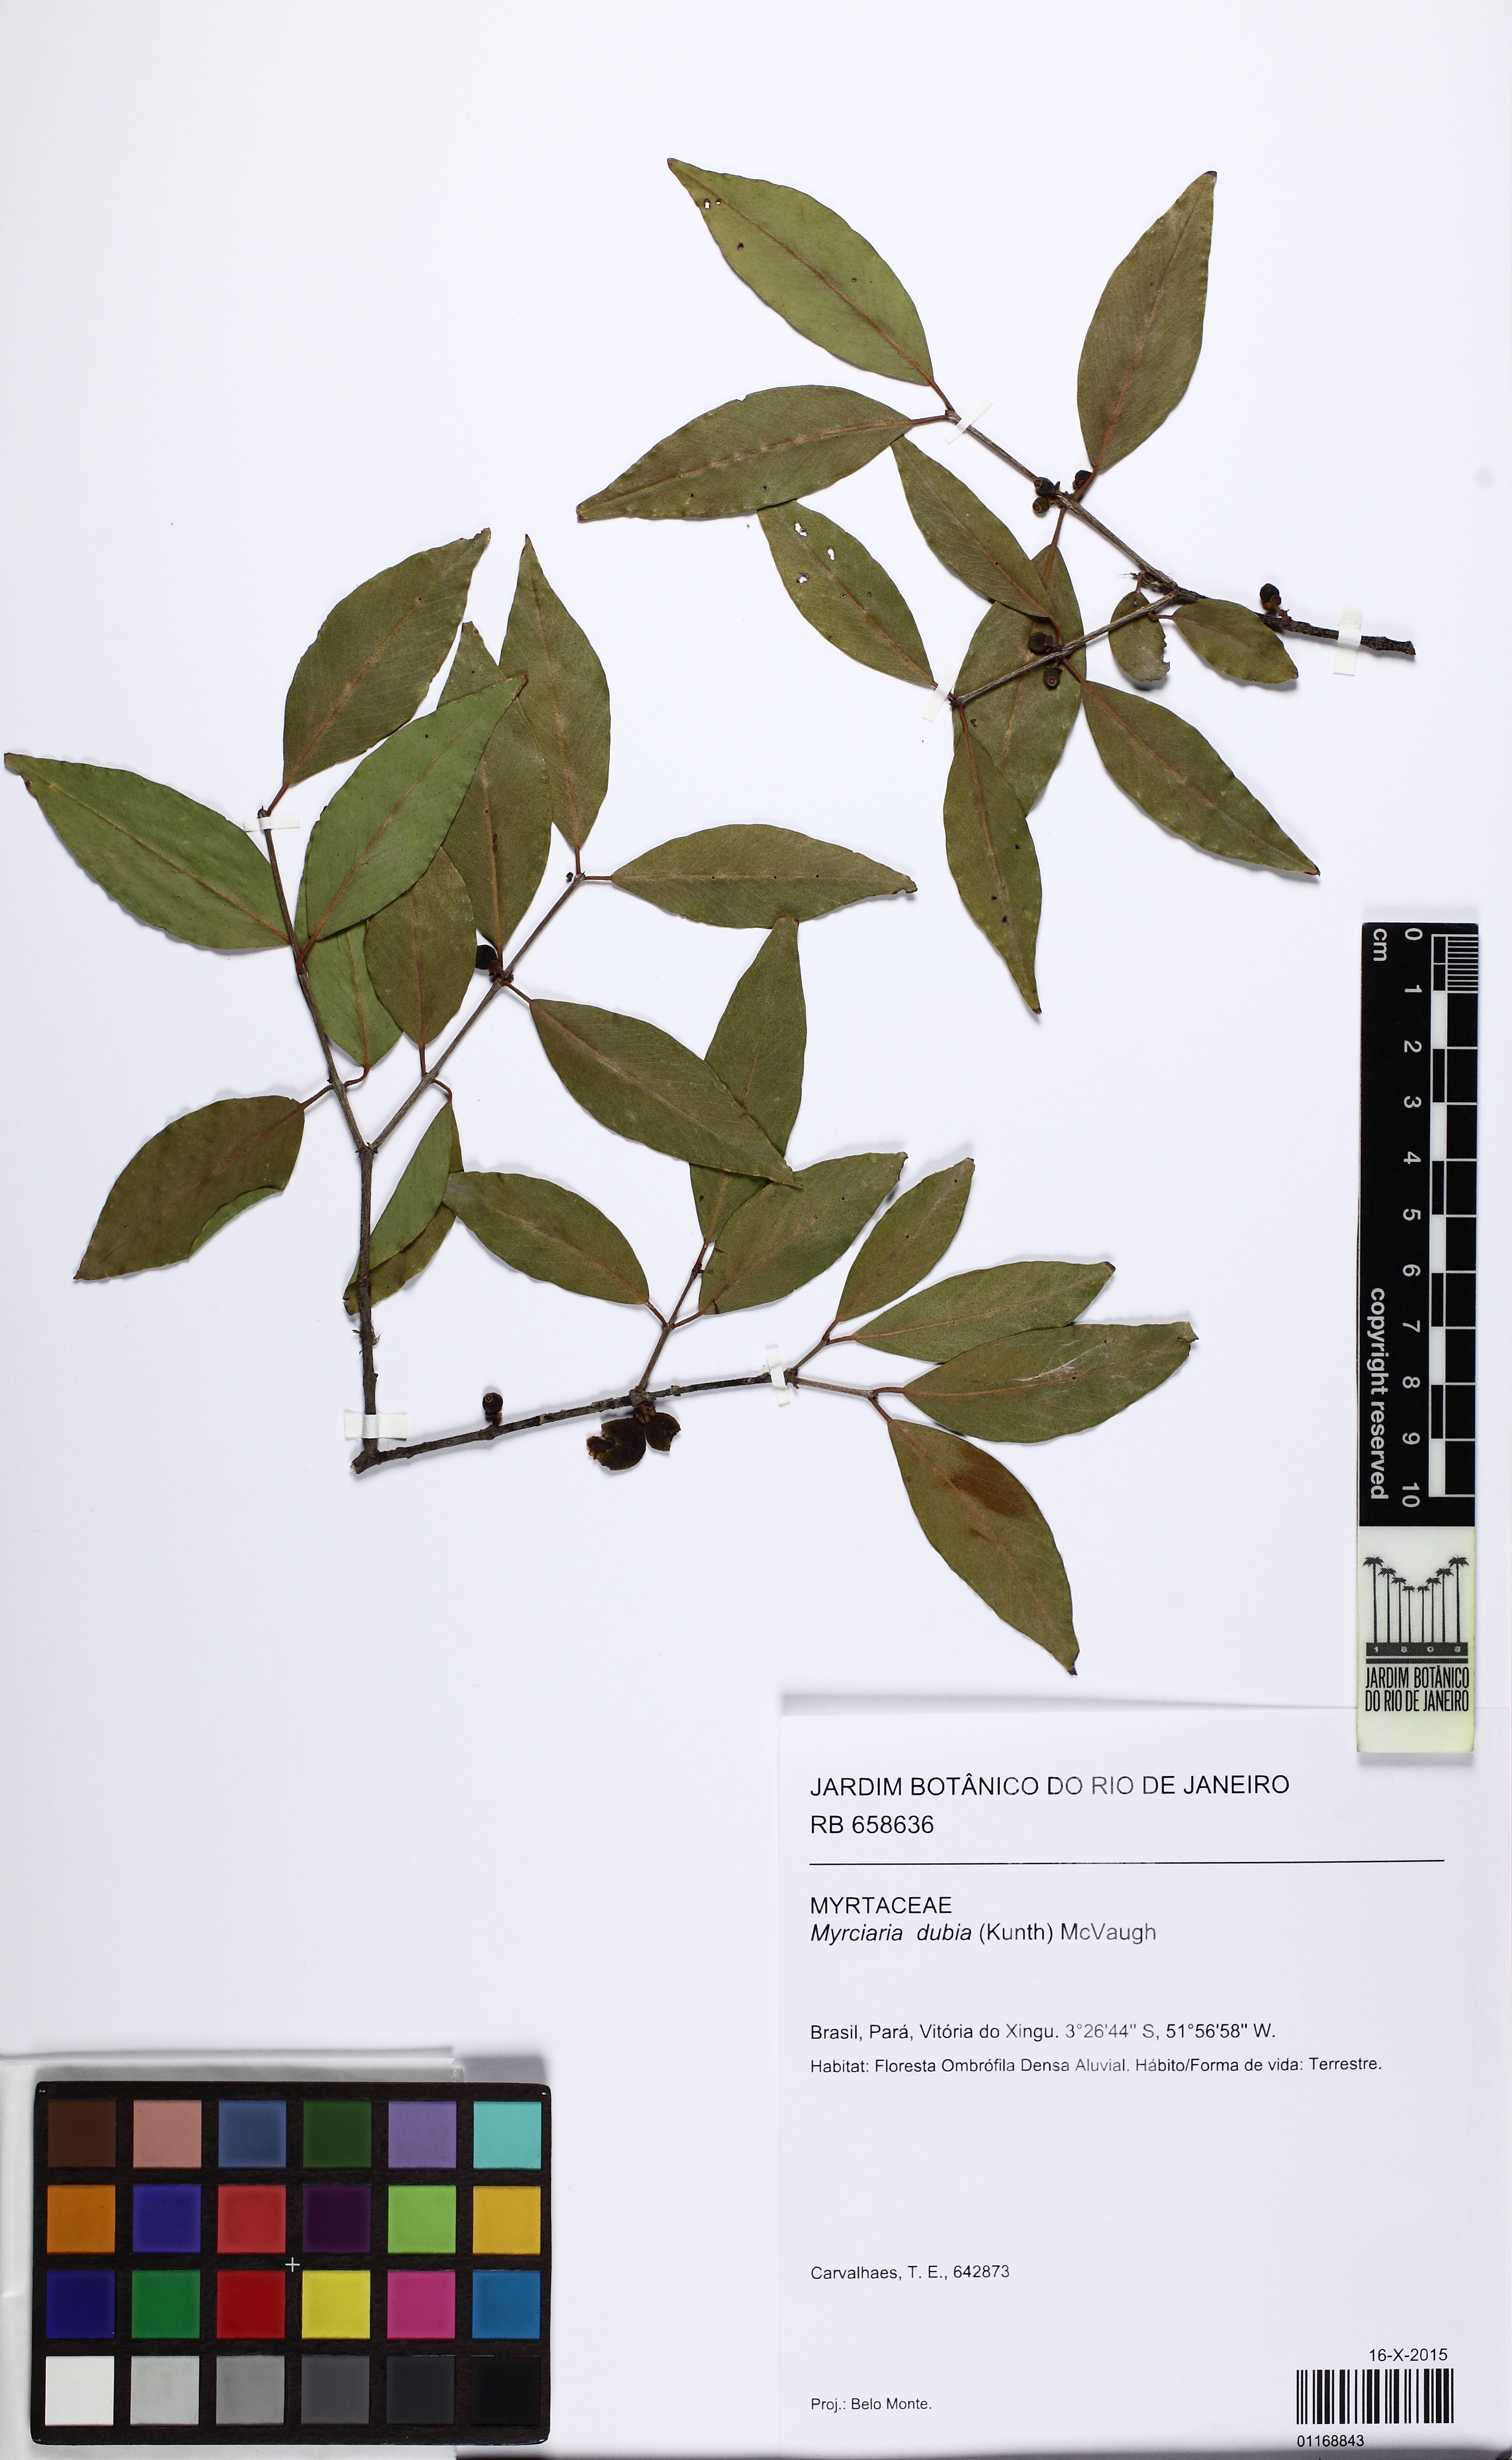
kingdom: Plantae
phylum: Tracheophyta
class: Magnoliopsida
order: Myrtales
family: Myrtaceae
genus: Myrciaria
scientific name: Myrciaria dubia
